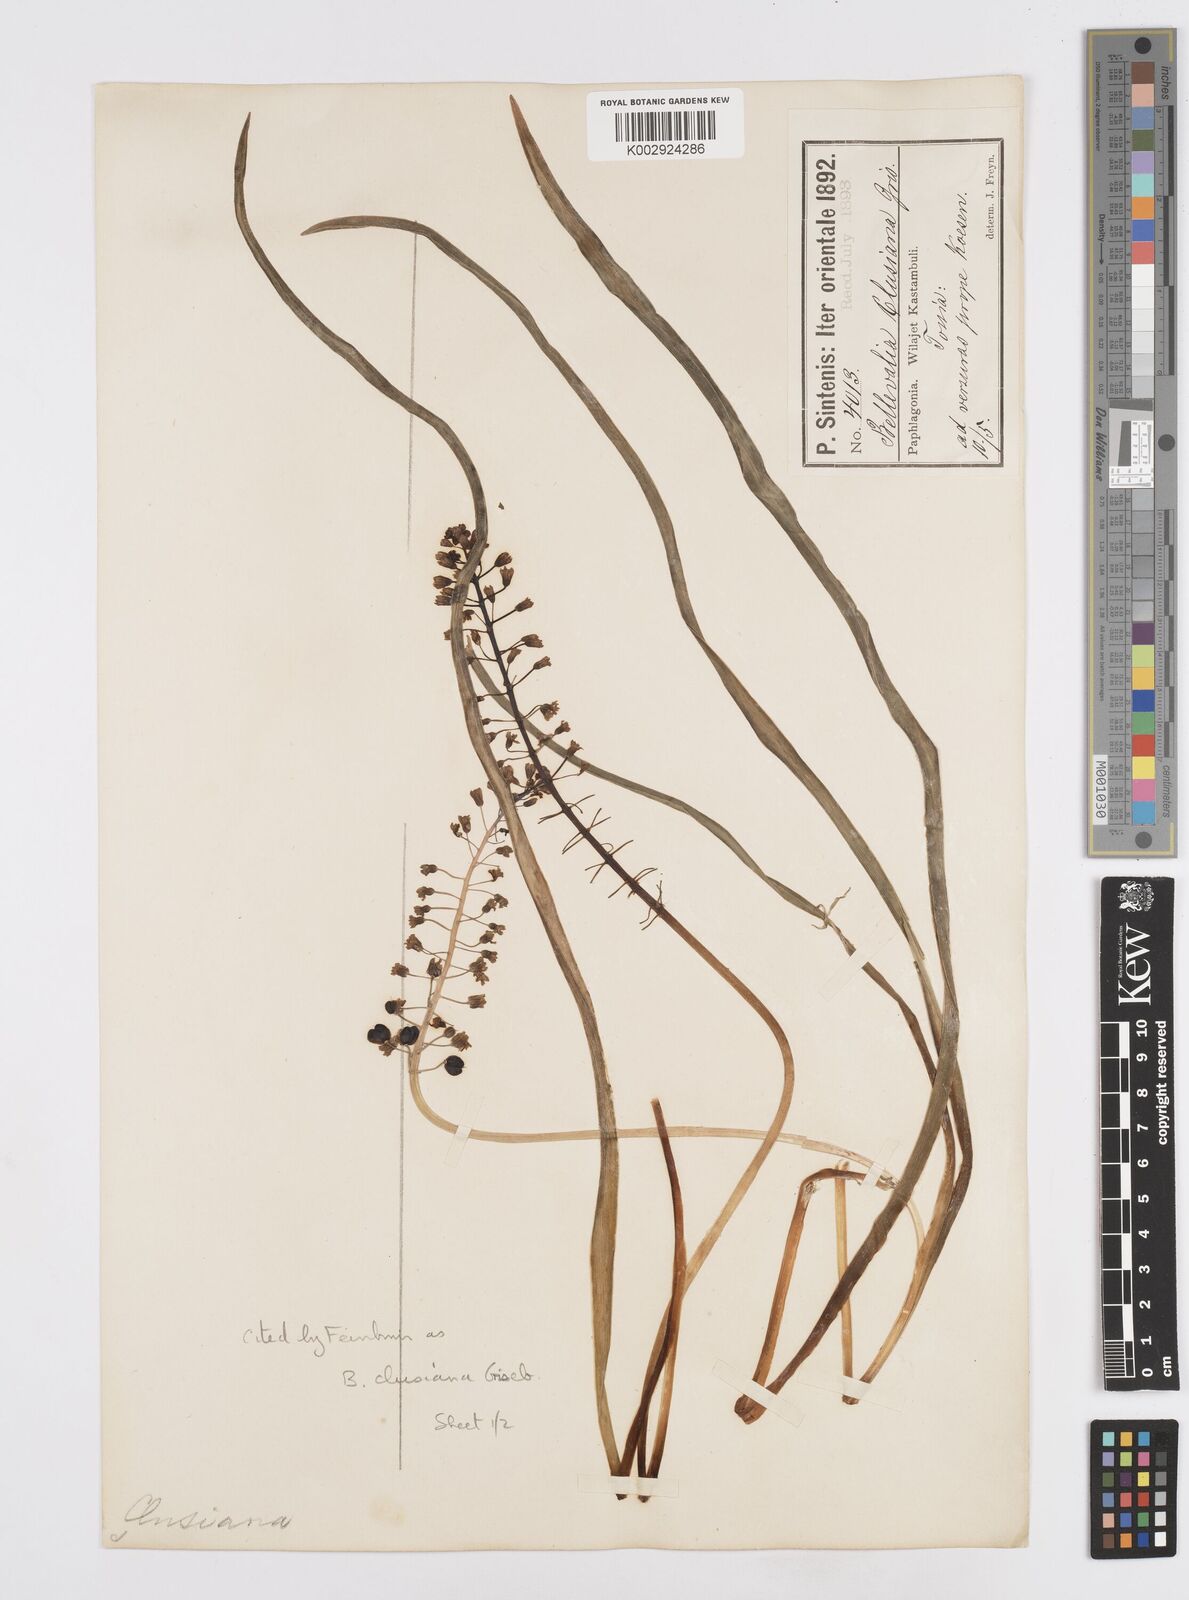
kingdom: Plantae
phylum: Tracheophyta
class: Liliopsida
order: Asparagales
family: Asparagaceae
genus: Bellevalia
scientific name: Bellevalia clusiana
